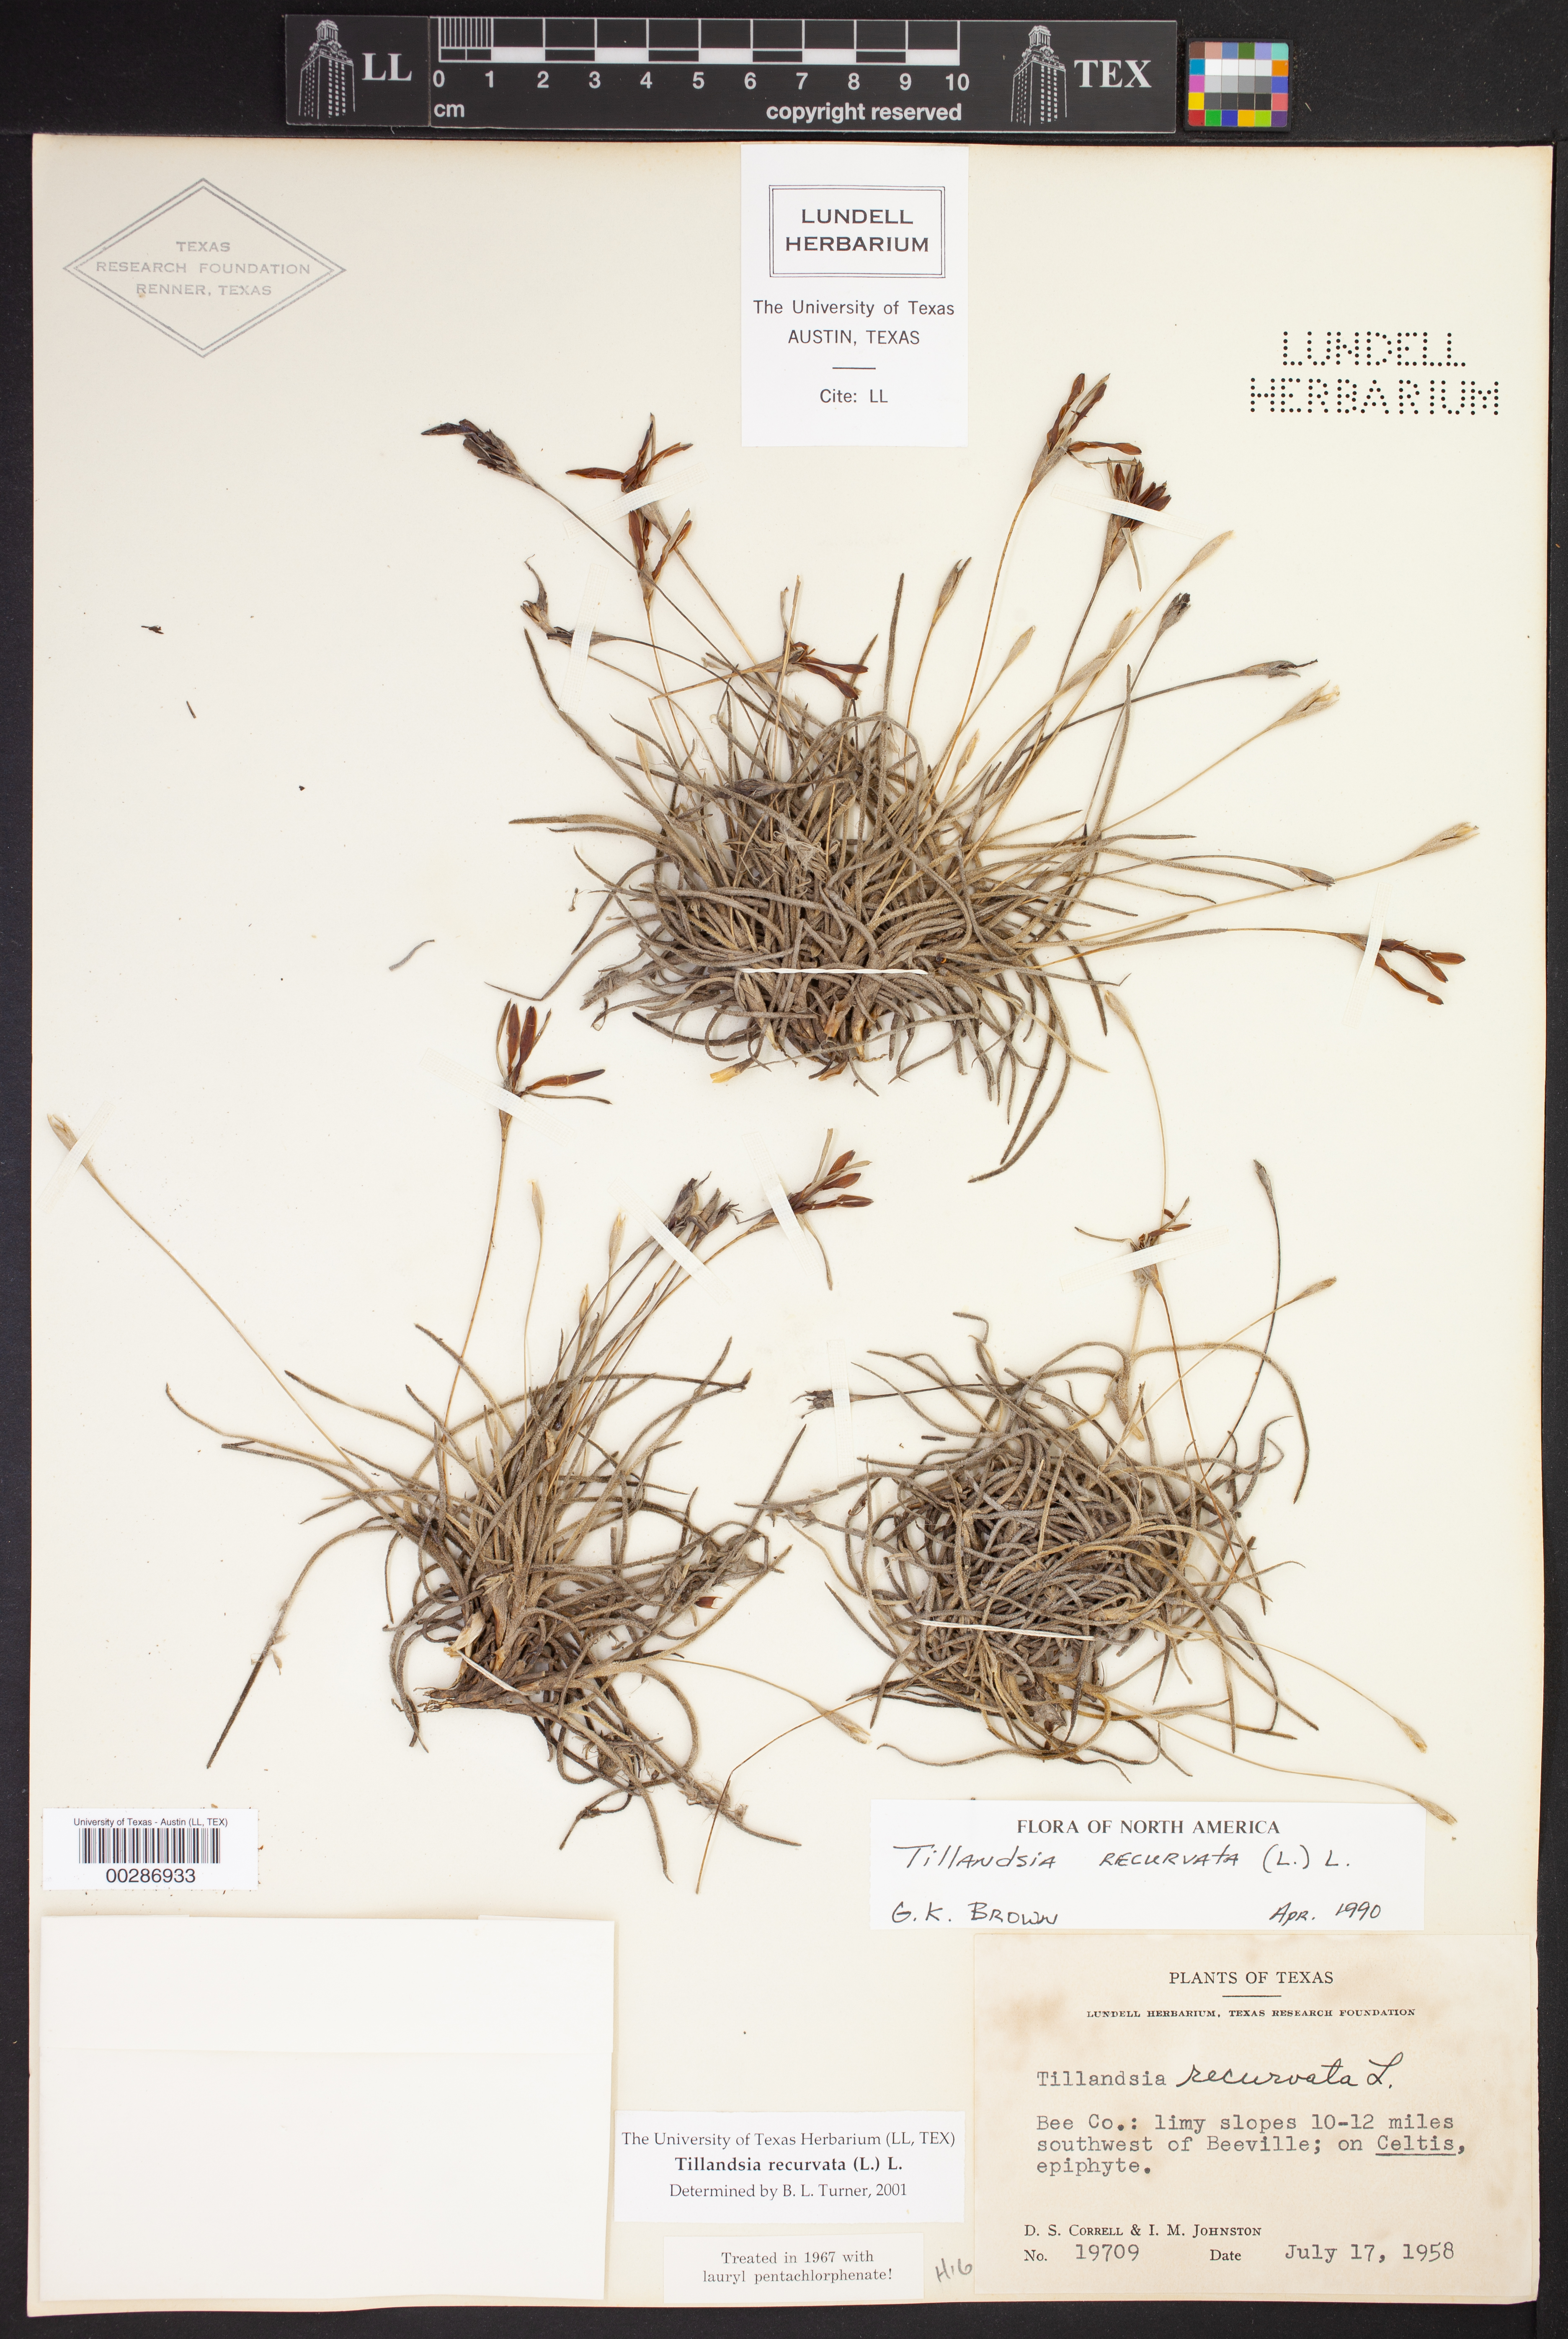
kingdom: Plantae
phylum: Tracheophyta
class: Liliopsida
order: Poales
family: Bromeliaceae
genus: Tillandsia
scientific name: Tillandsia recurvata
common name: Small ballmoss
